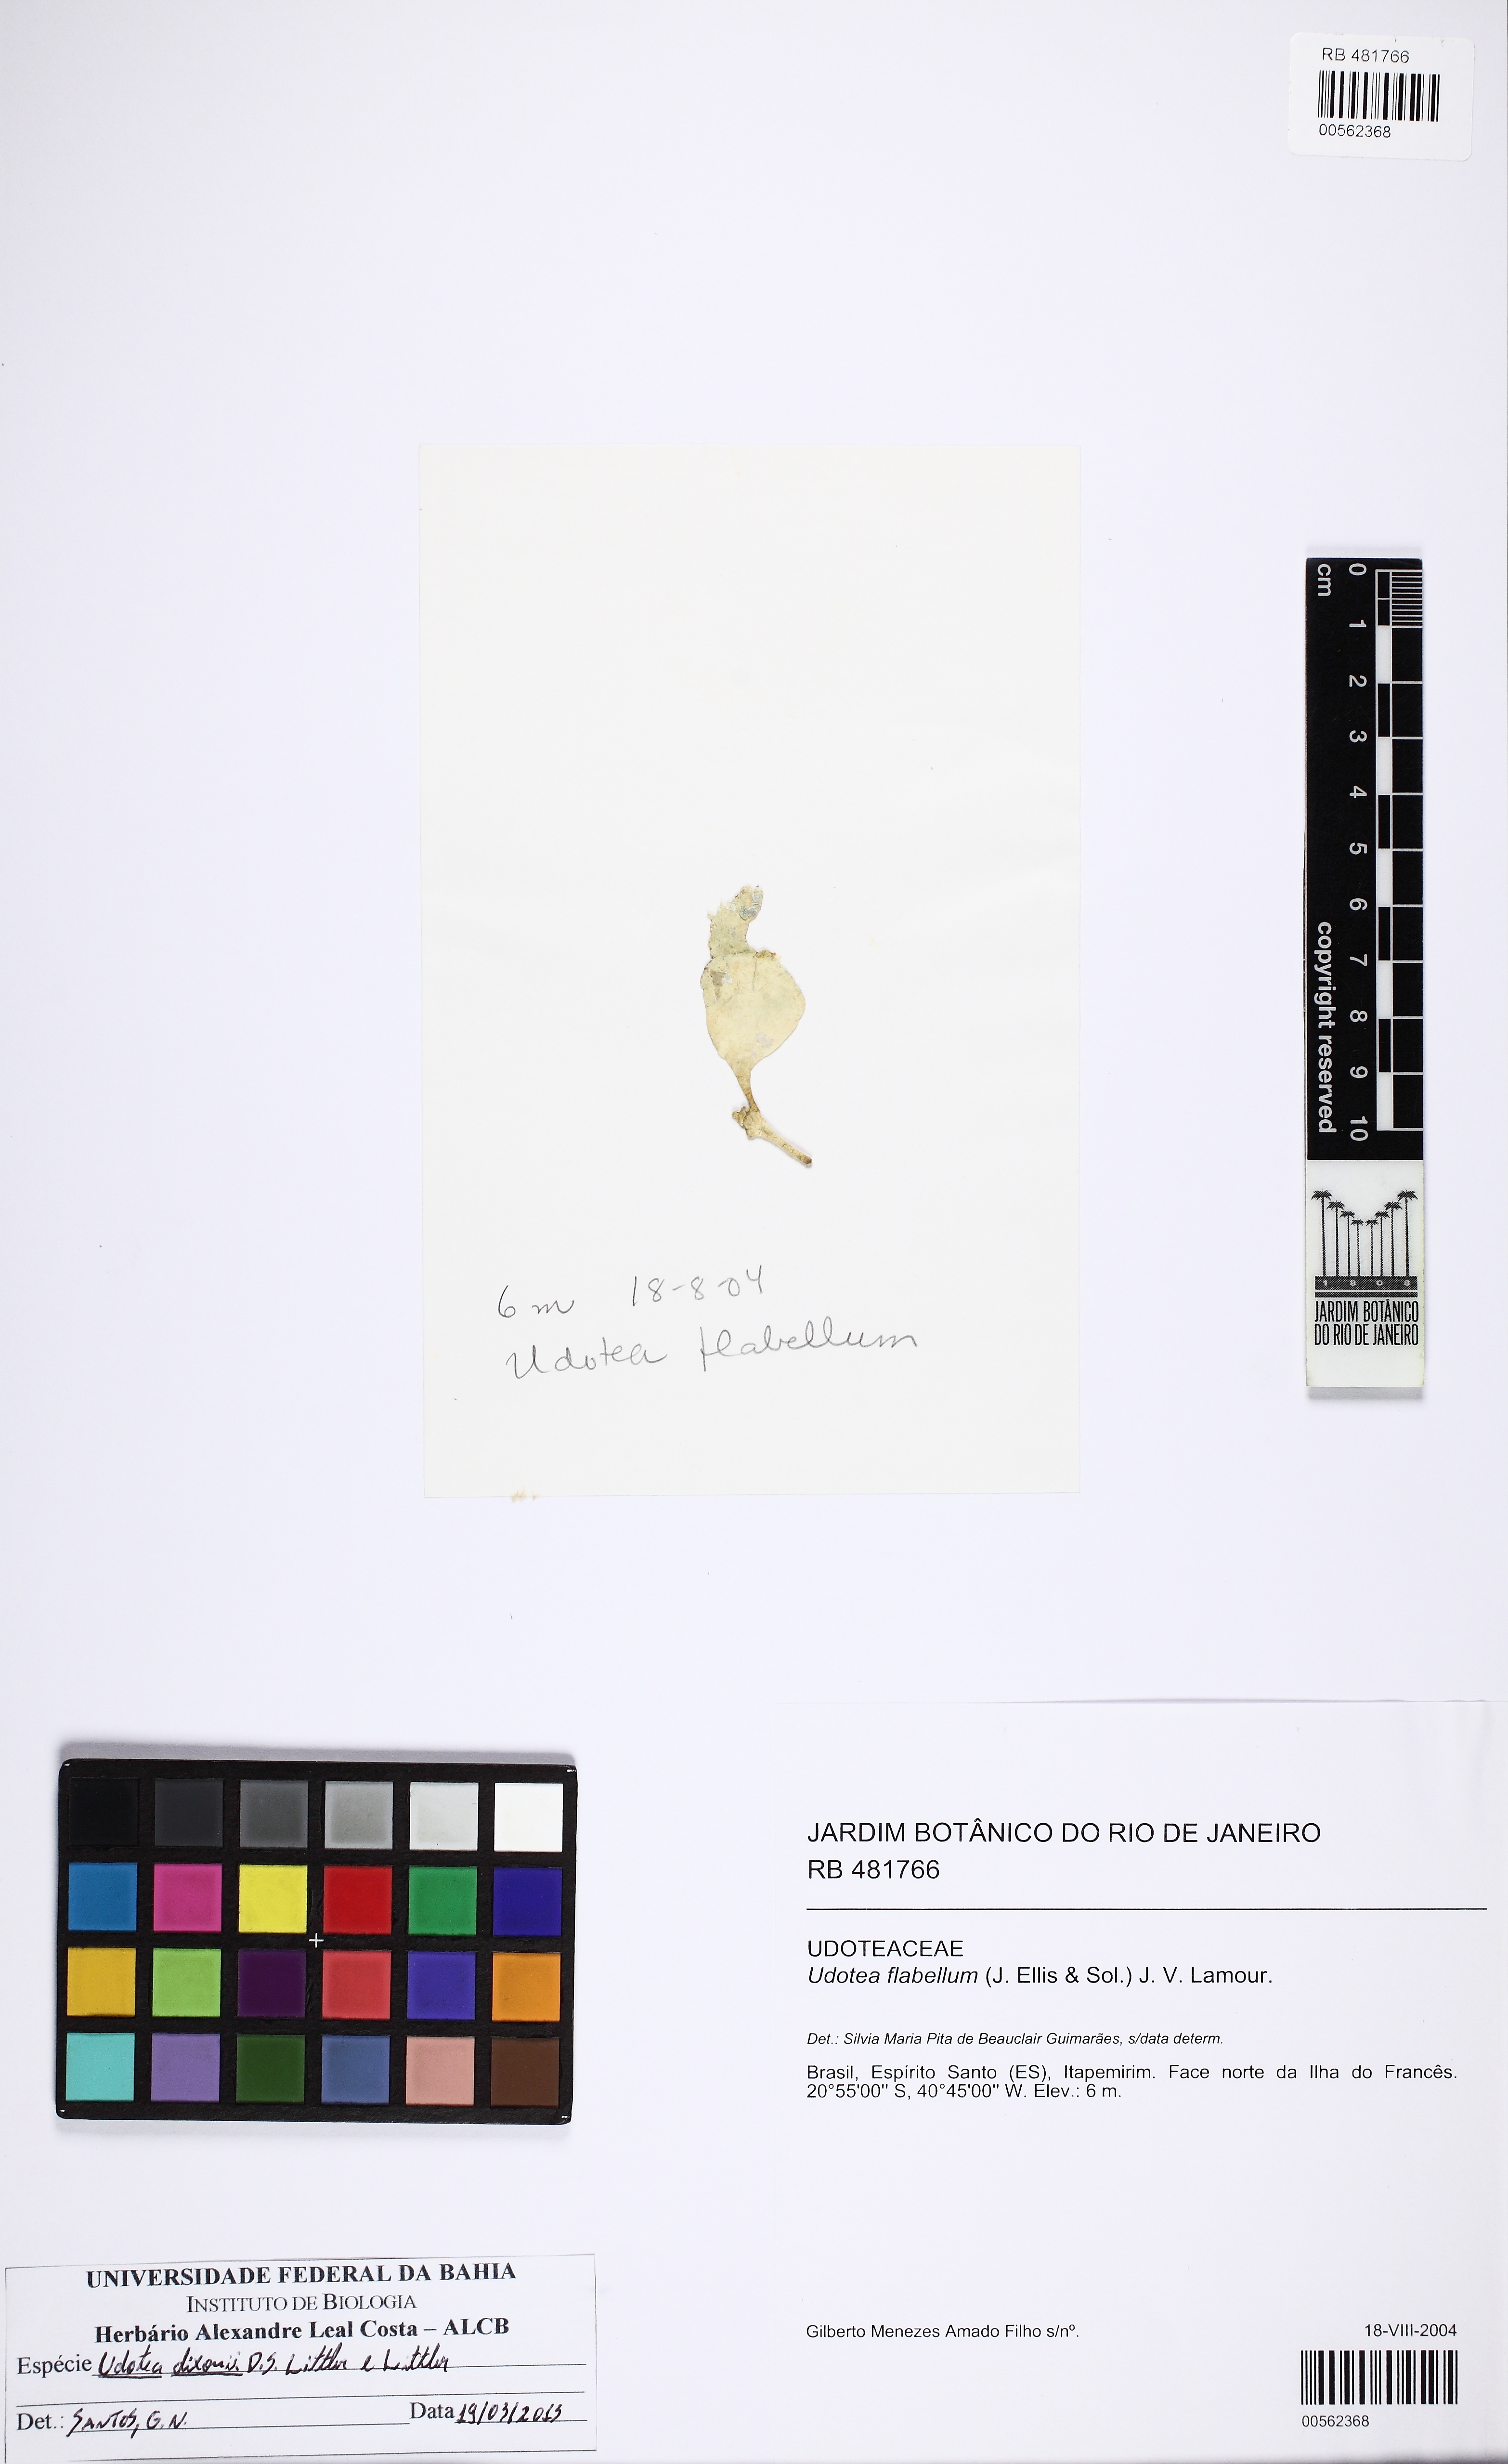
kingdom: Plantae
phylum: Chlorophyta
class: Ulvophyceae
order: Bryopsidales
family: Udoteaceae
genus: Udotea
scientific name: Udotea dixonii
